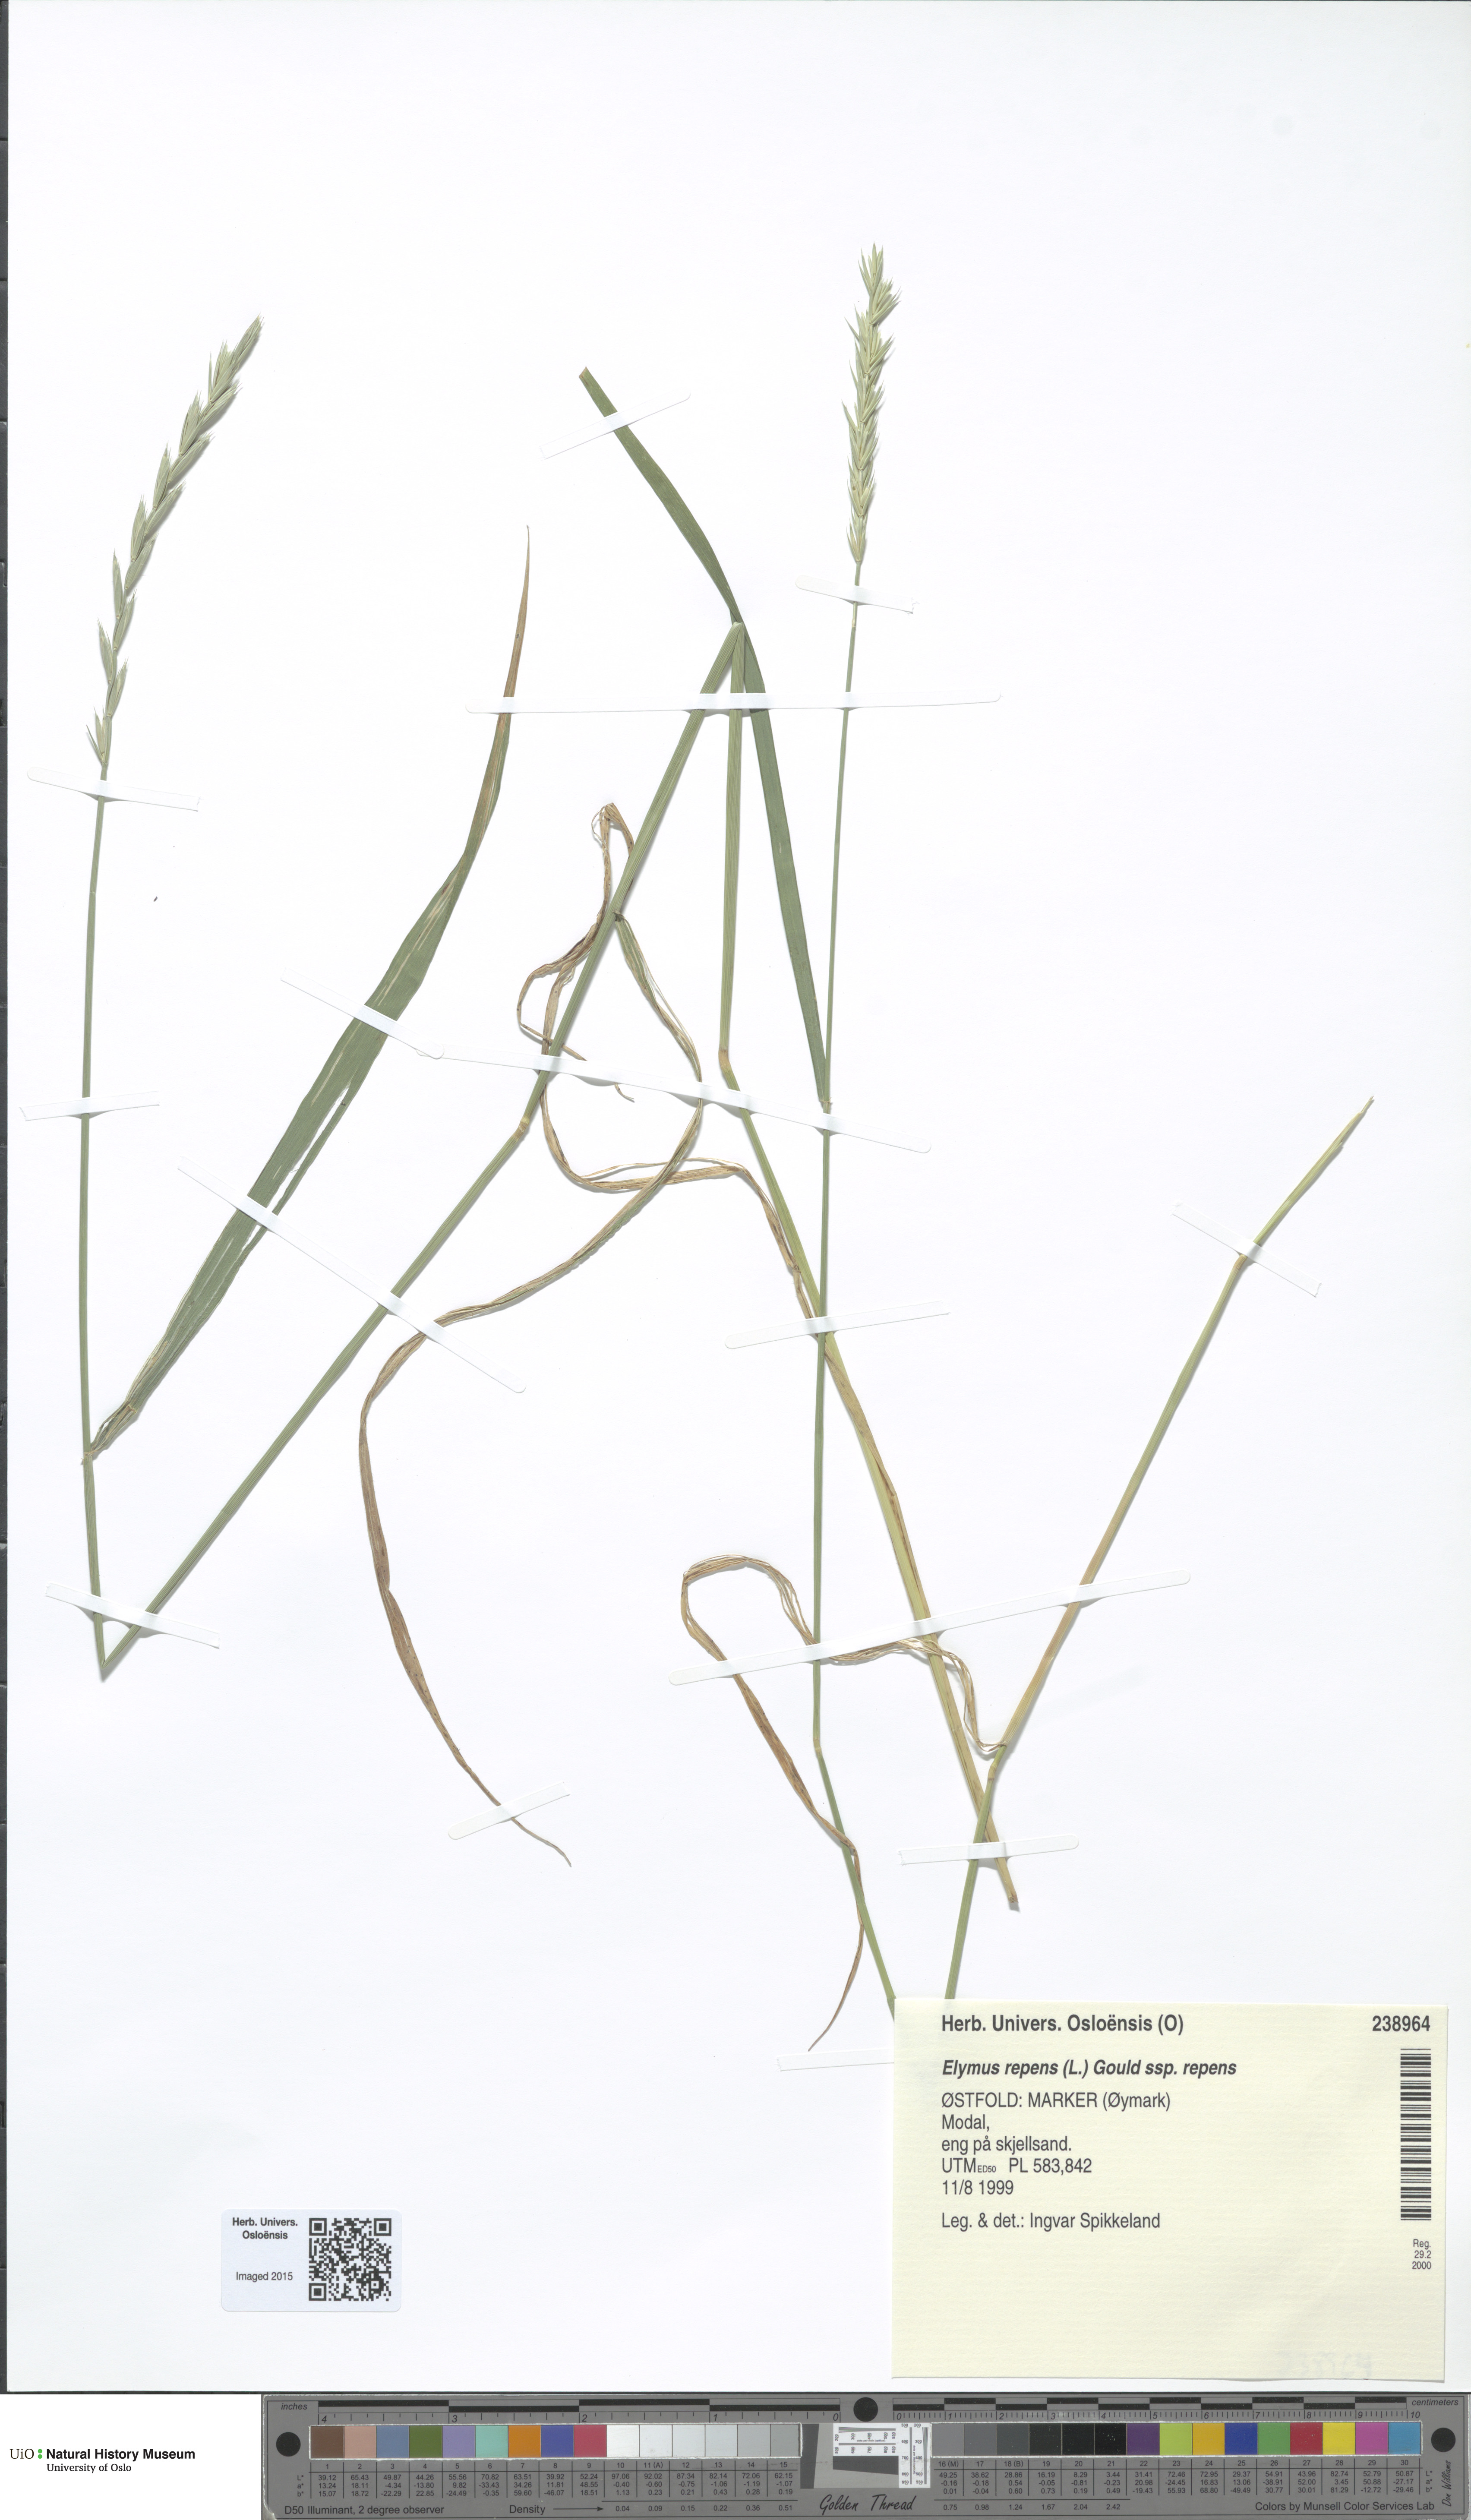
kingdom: Plantae
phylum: Tracheophyta
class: Liliopsida
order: Poales
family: Poaceae
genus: Elymus
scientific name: Elymus repens
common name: Quackgrass
